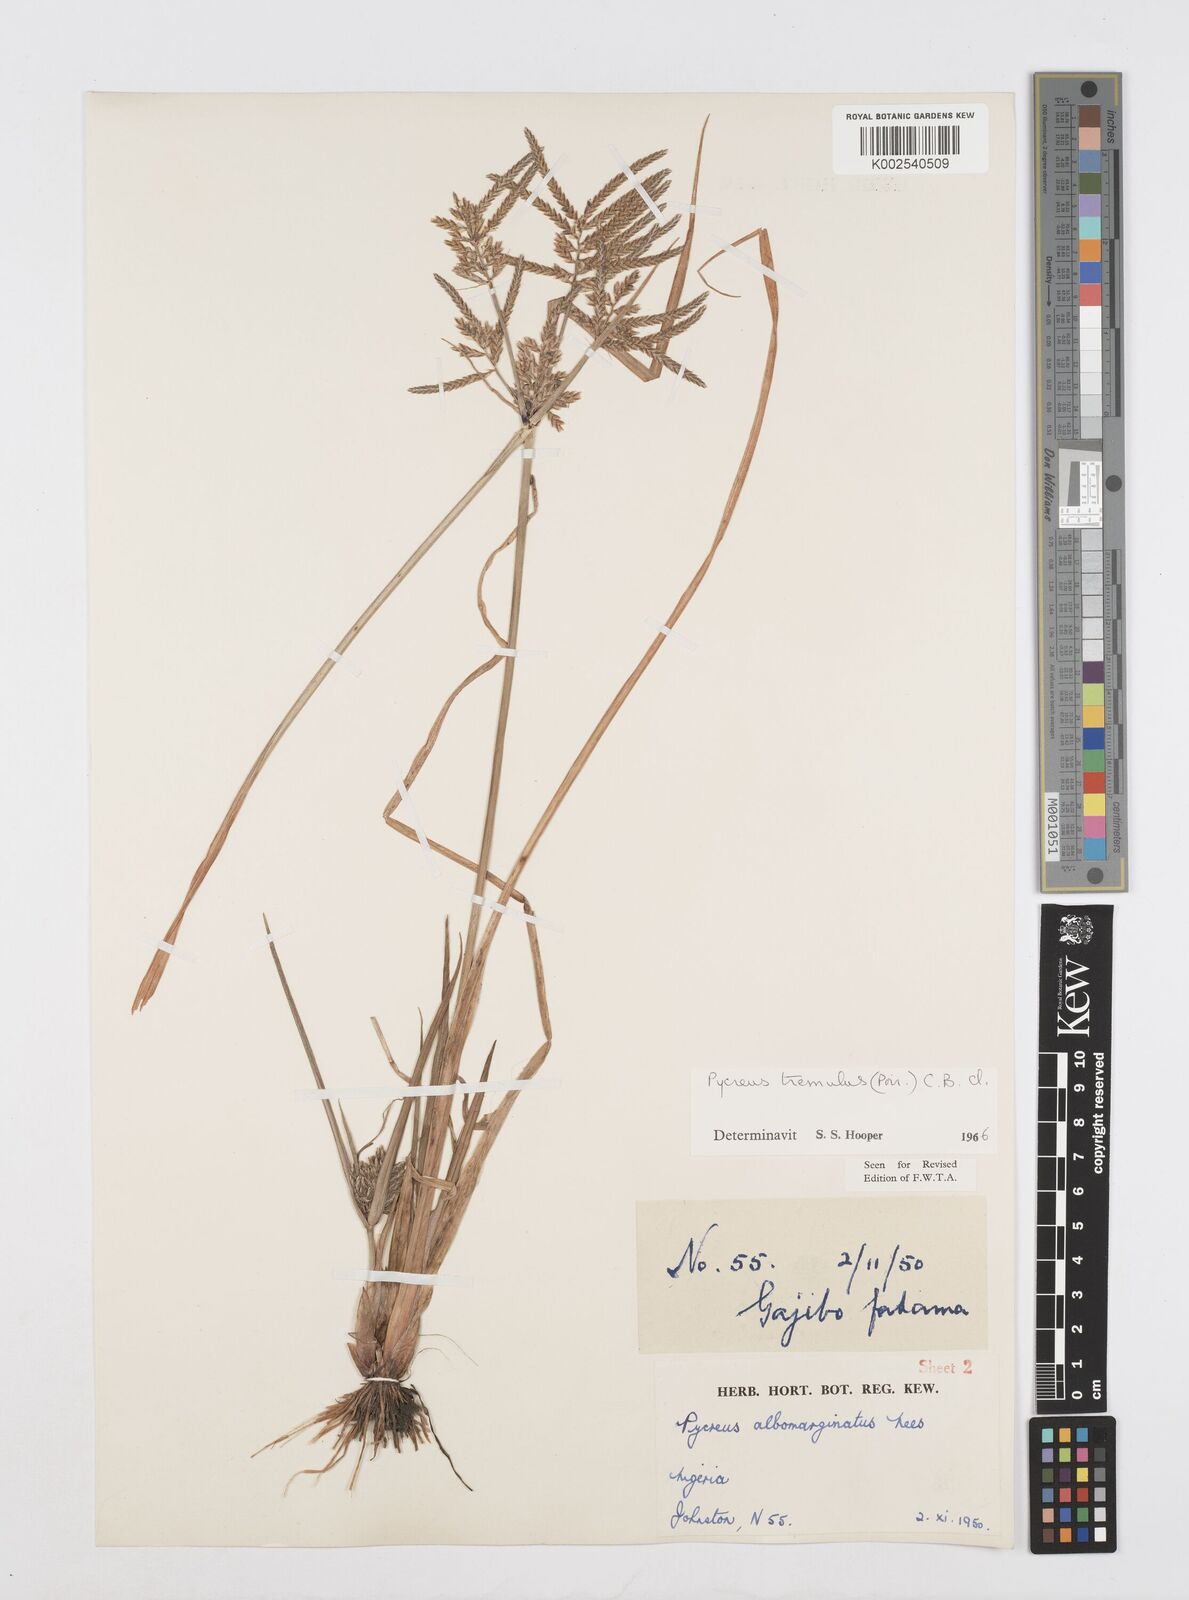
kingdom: Plantae
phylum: Tracheophyta
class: Liliopsida
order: Poales
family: Cyperaceae
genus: Cyperus
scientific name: Cyperus macrostachyos
